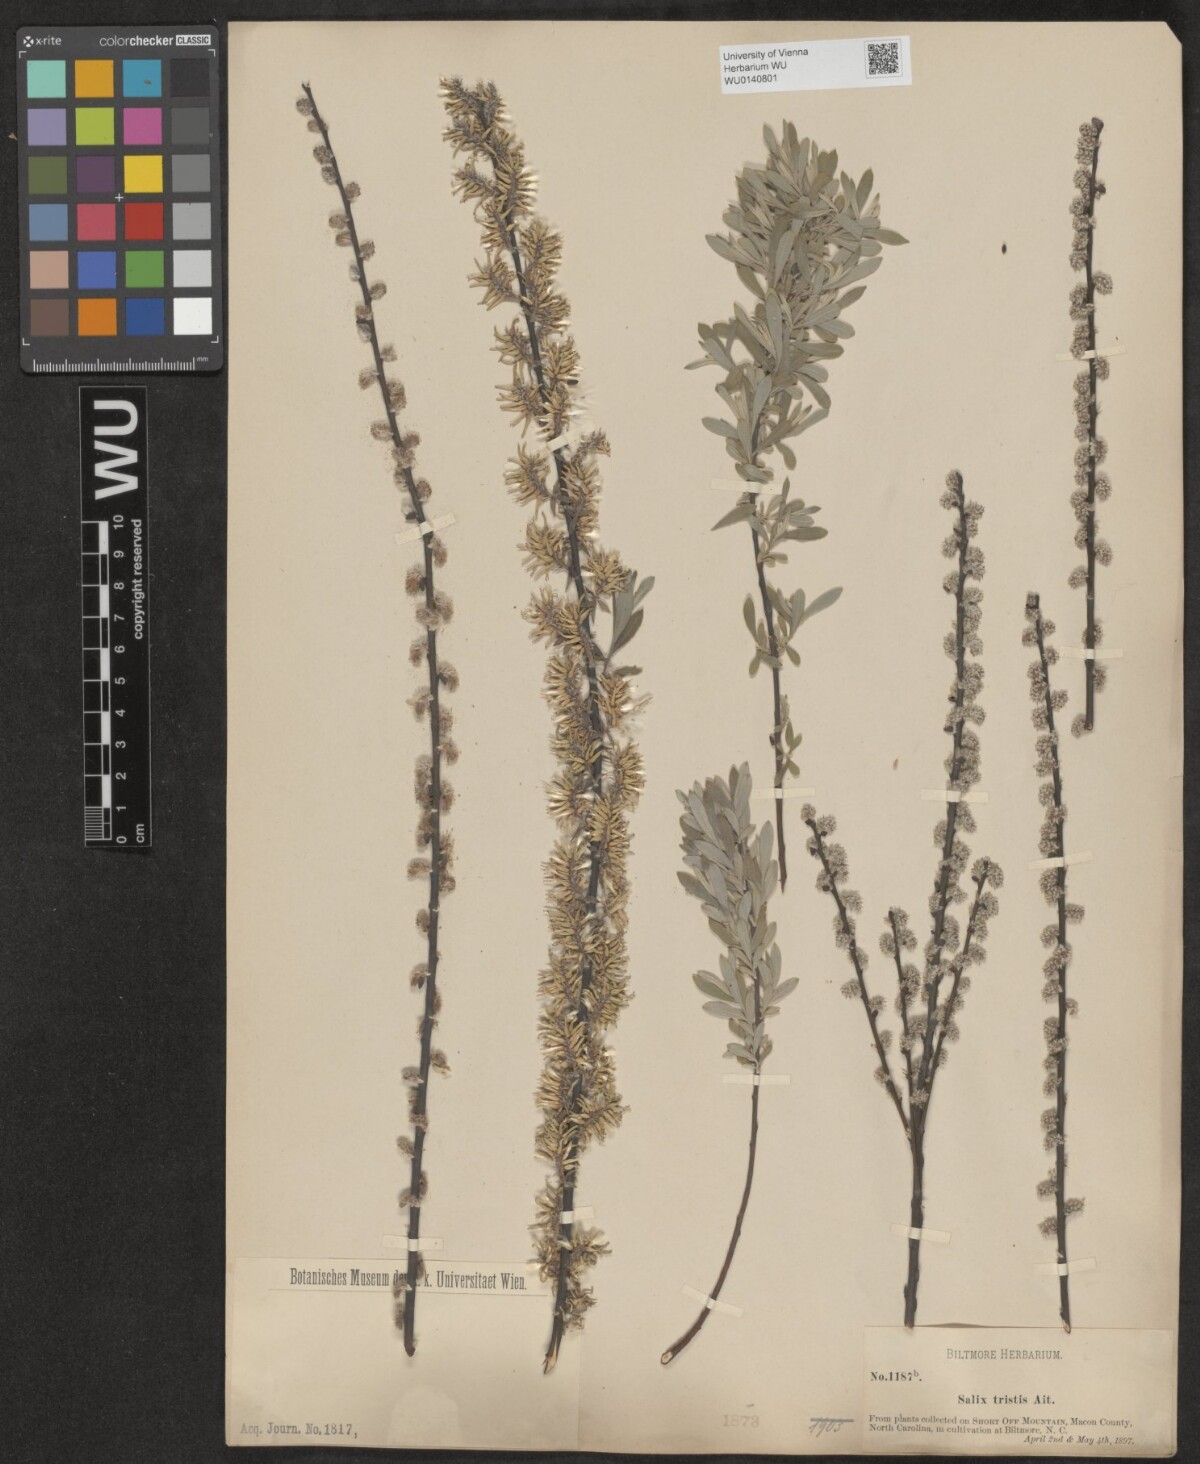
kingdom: Plantae
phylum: Tracheophyta
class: Magnoliopsida
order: Malpighiales
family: Salicaceae
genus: Salix
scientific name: Salix humilis
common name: Prairie willow
